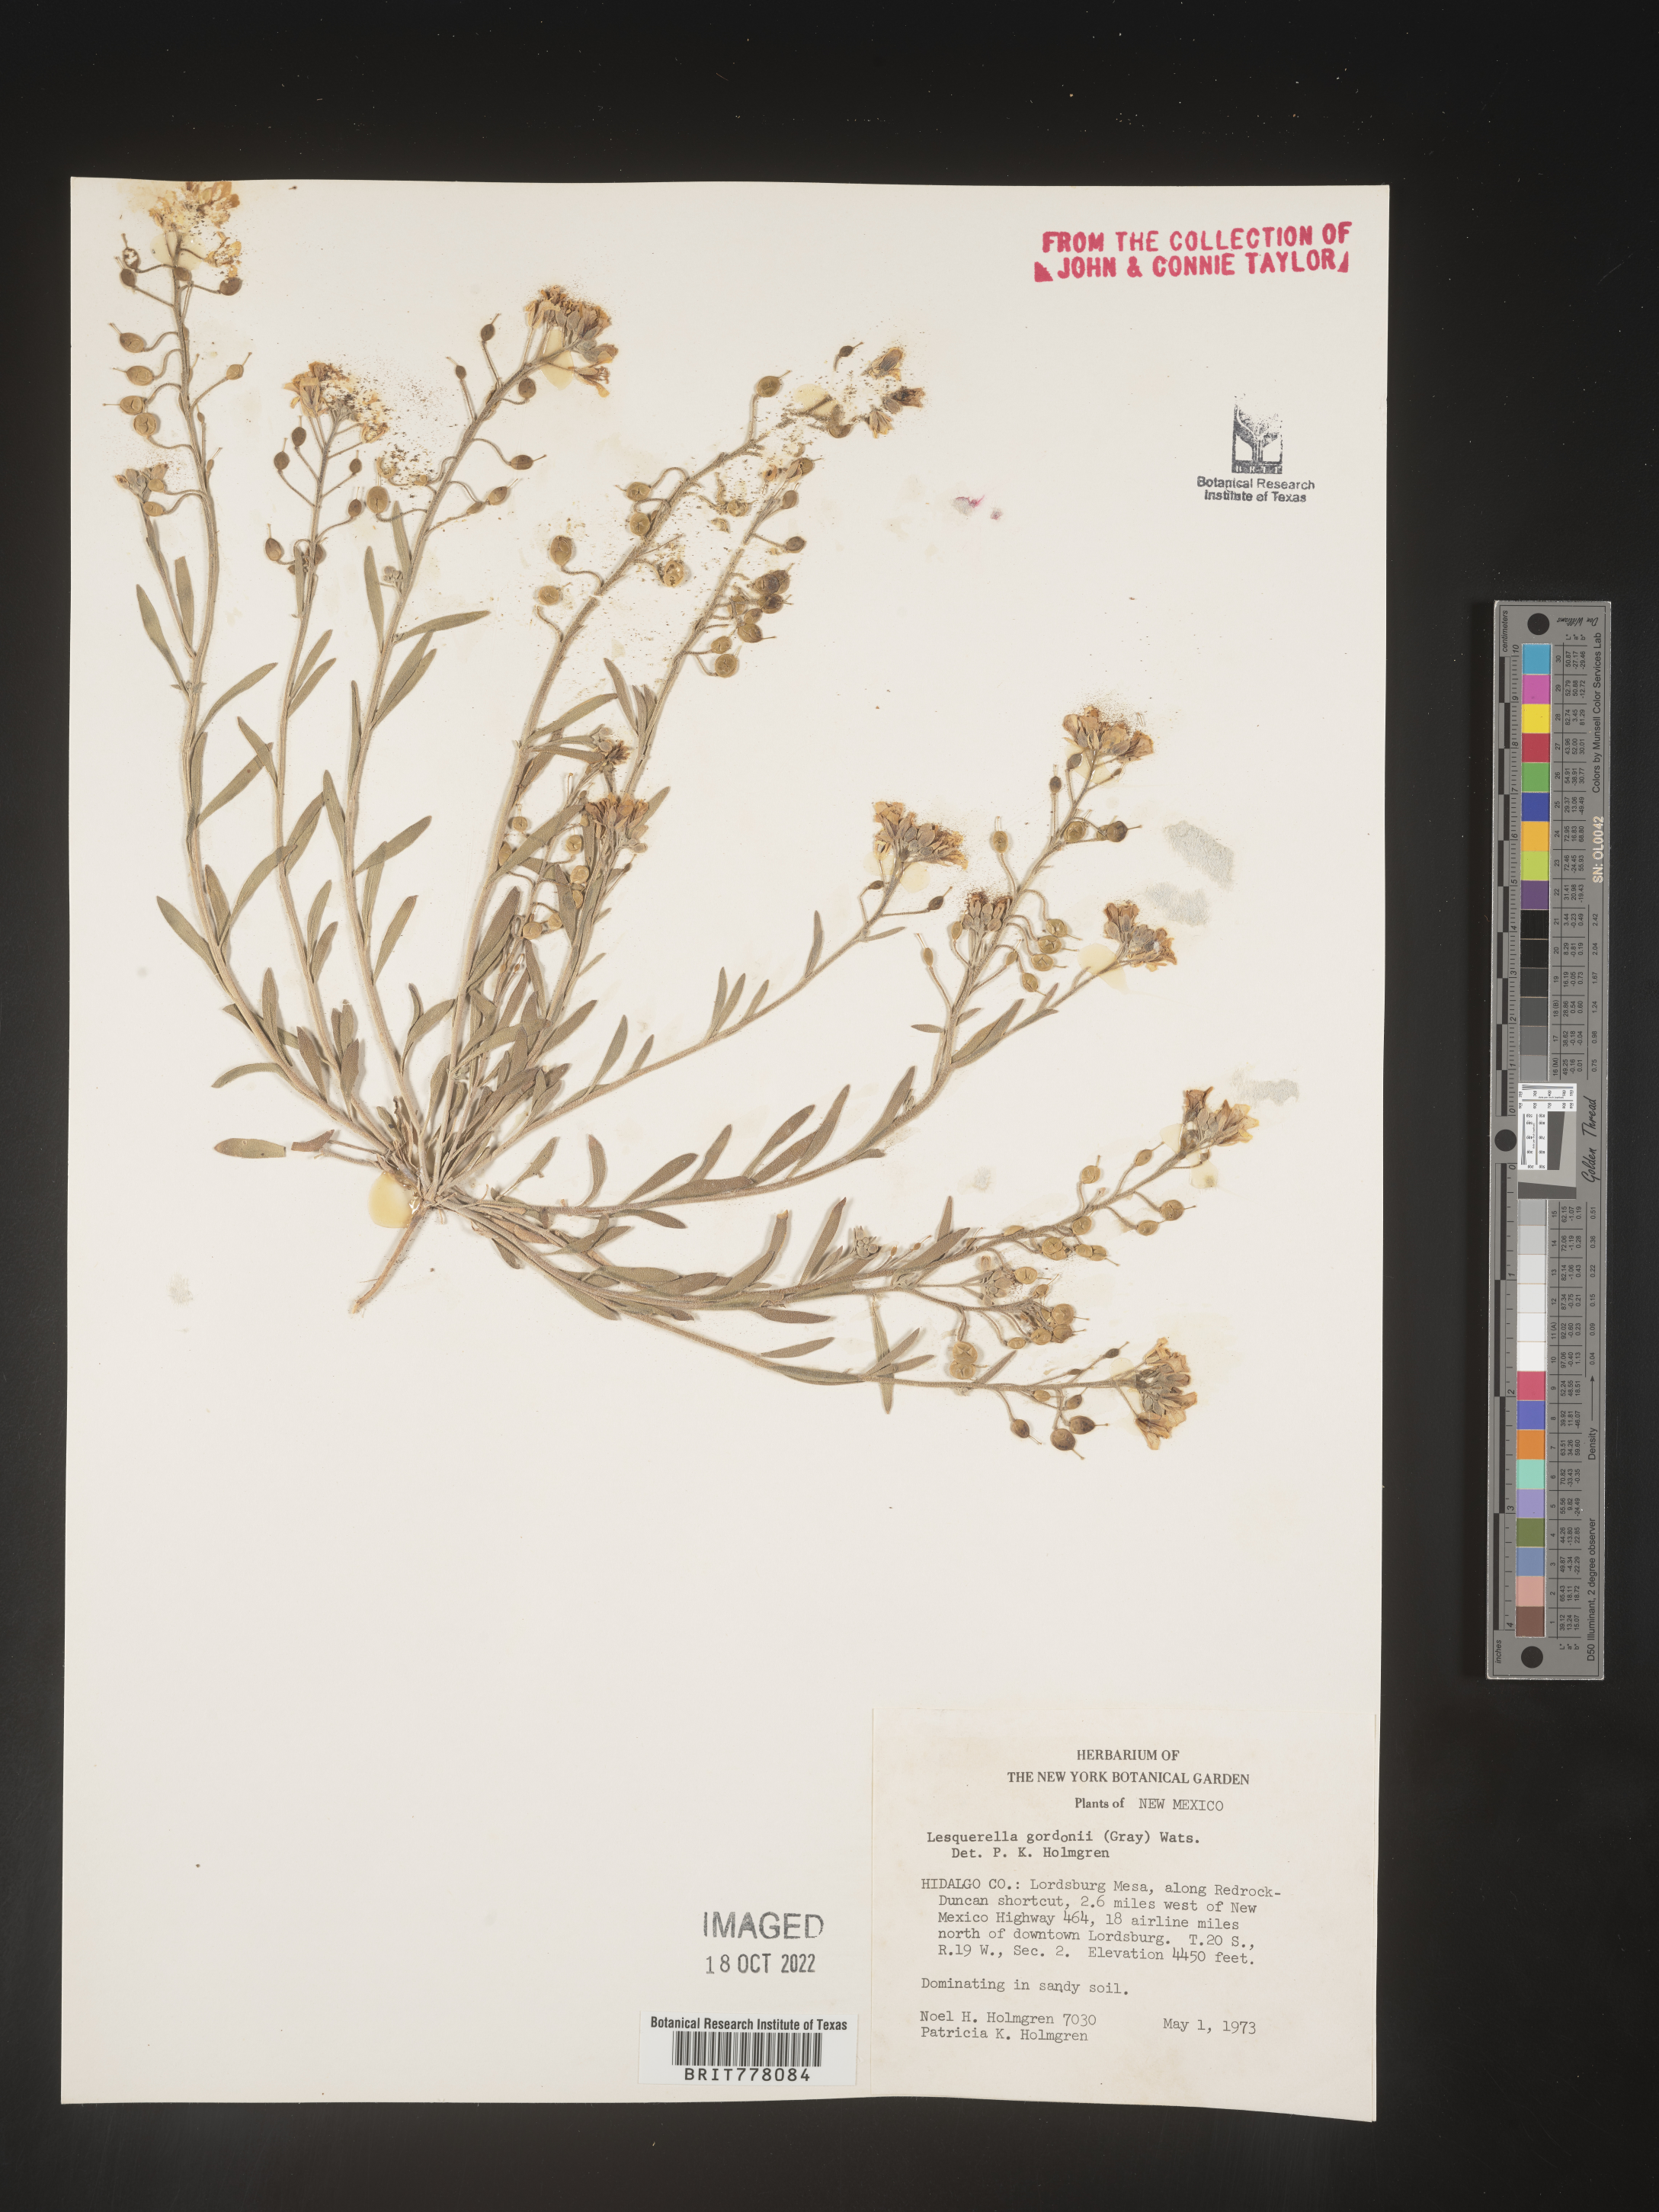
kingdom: Chromista
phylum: Cercozoa
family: Psammonobiotidae
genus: Lesquerella
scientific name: Lesquerella
